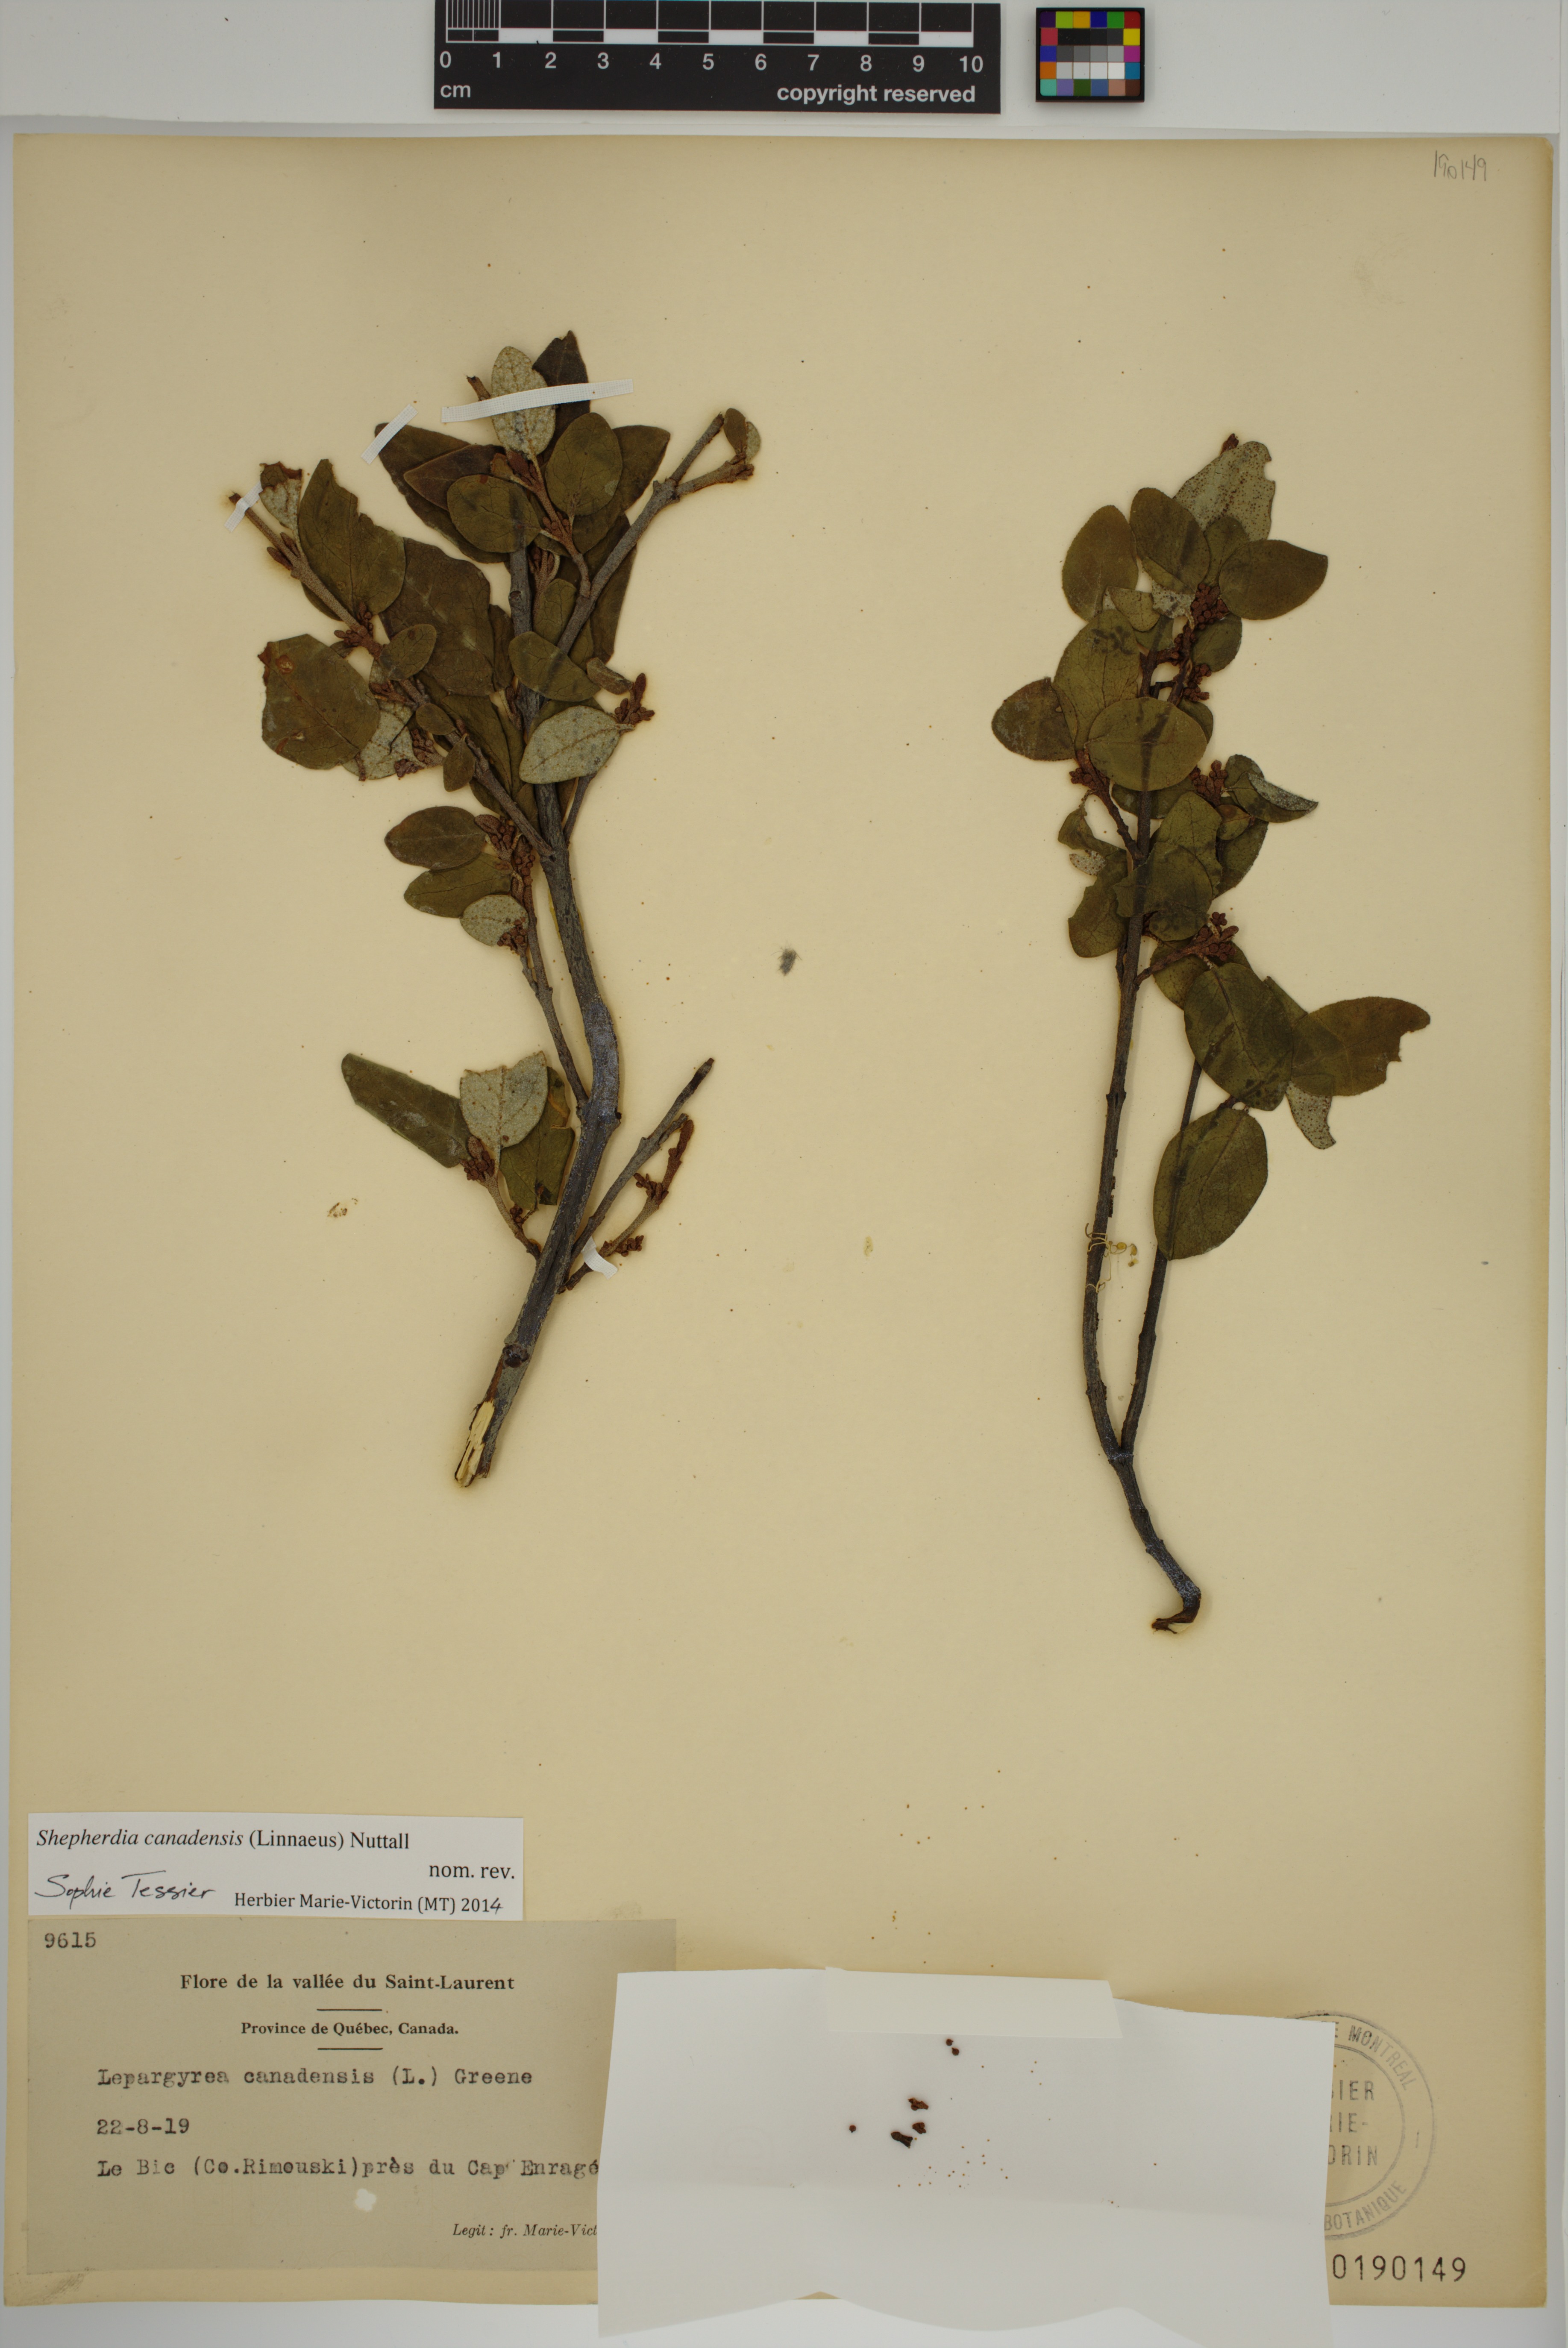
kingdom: Plantae
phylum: Tracheophyta
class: Magnoliopsida
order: Rosales
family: Elaeagnaceae
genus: Shepherdia
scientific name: Shepherdia canadensis
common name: Soapberry
